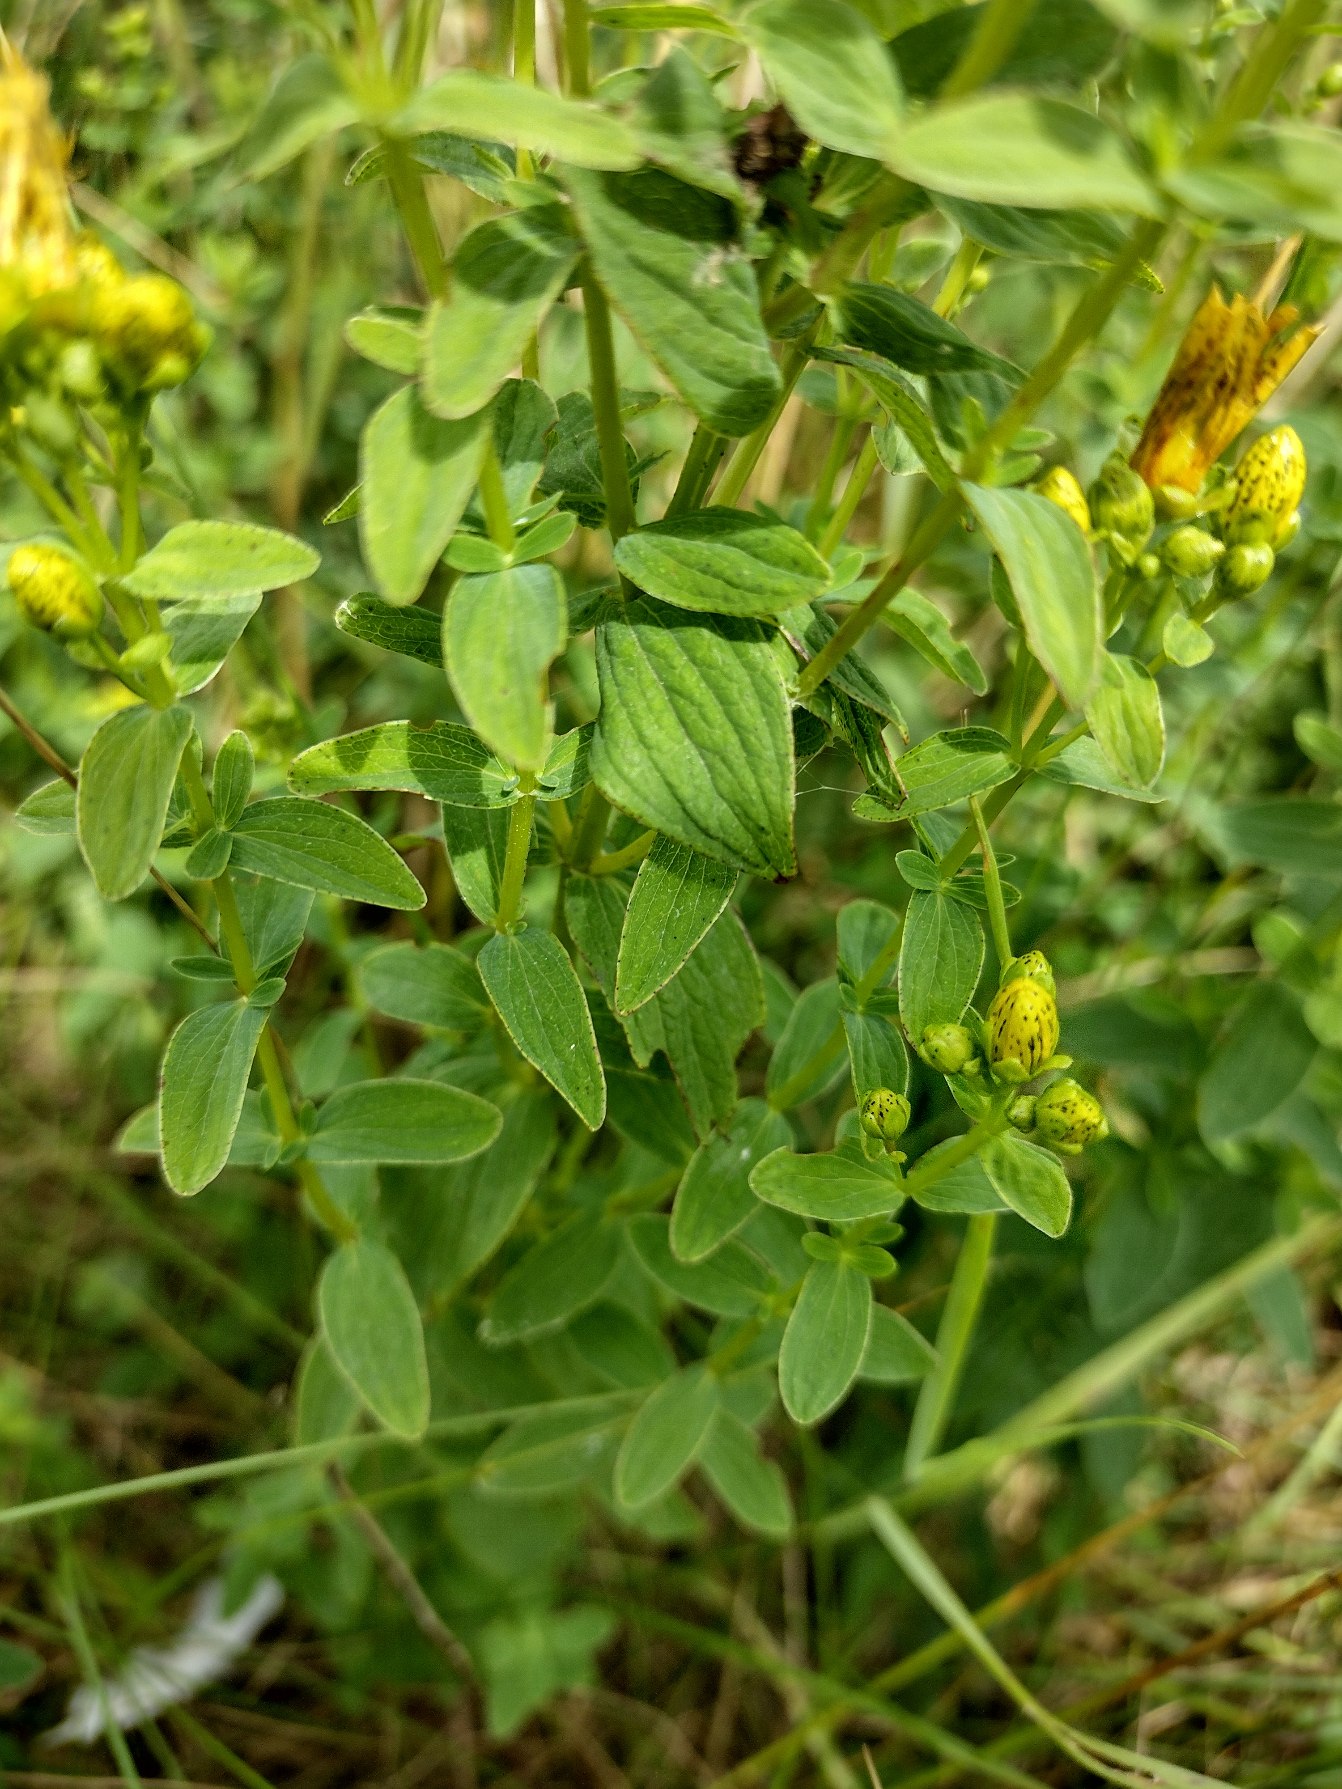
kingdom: Plantae
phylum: Tracheophyta
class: Magnoliopsida
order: Malpighiales
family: Hypericaceae
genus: Hypericum
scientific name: Hypericum maculatum
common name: Kantet perikon
